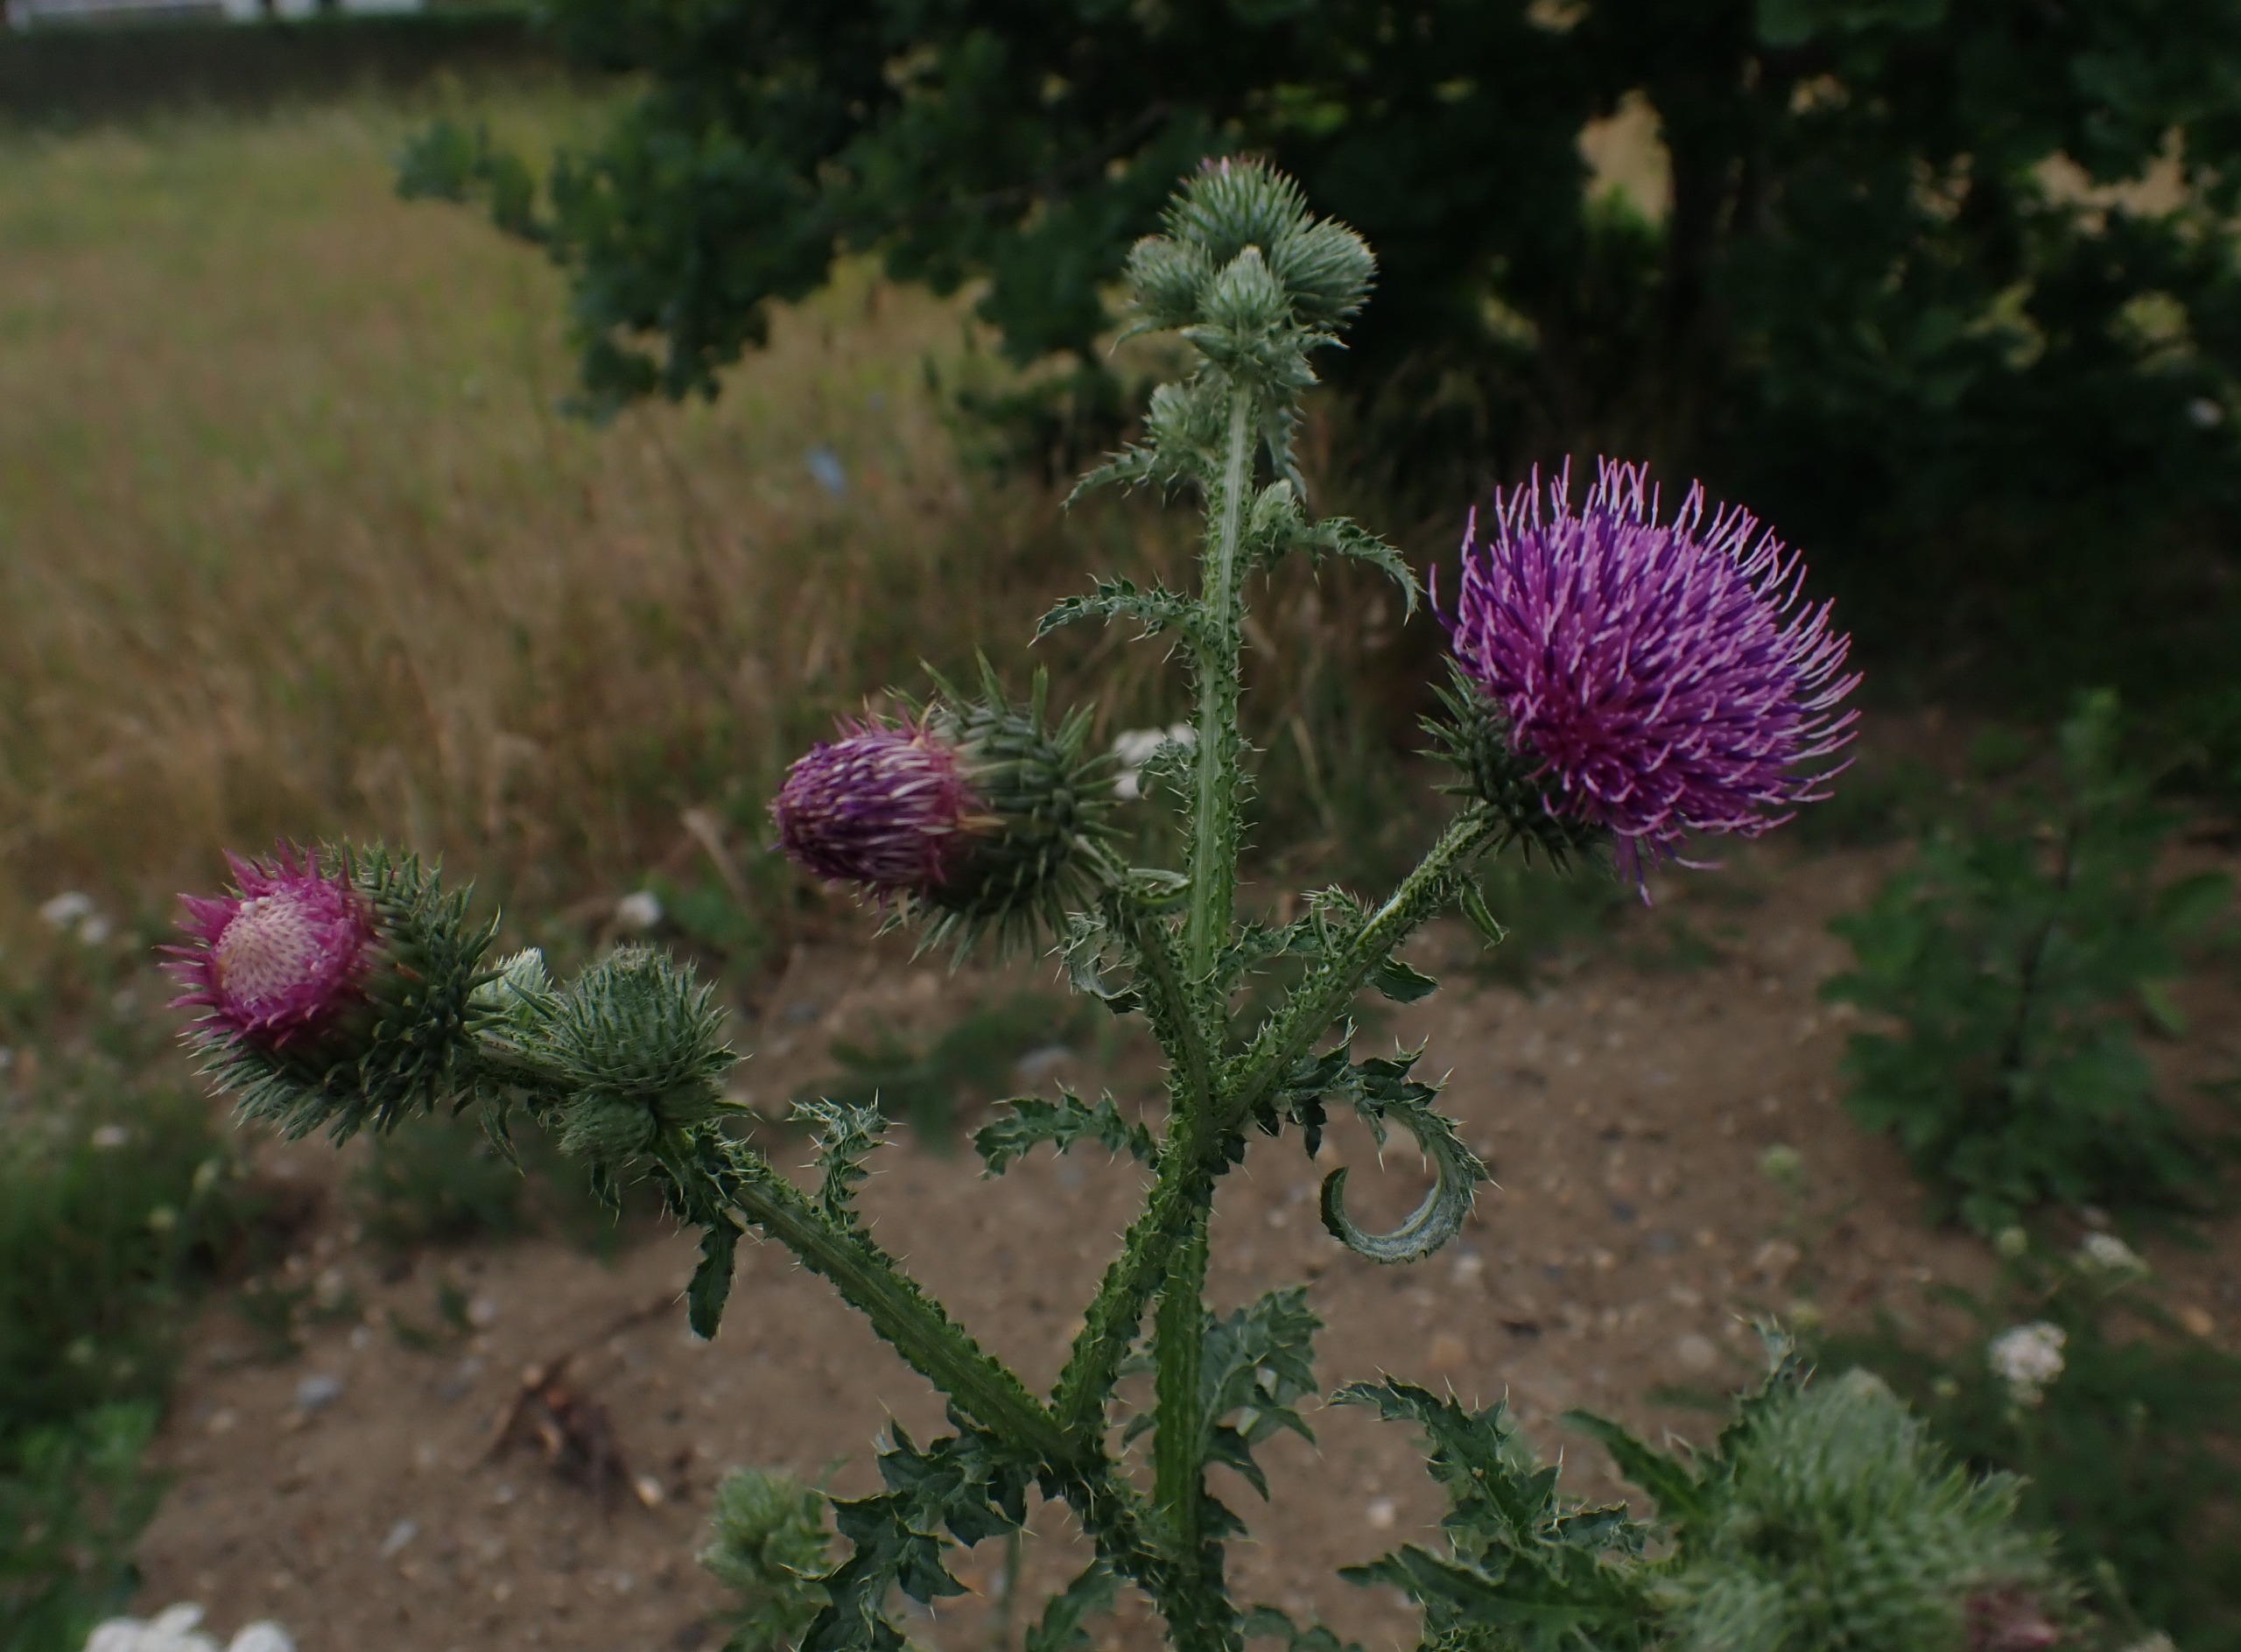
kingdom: Plantae
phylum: Tracheophyta
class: Magnoliopsida
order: Asterales
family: Asteraceae
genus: Carduus
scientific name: Carduus crispus
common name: Kruset tidsel
